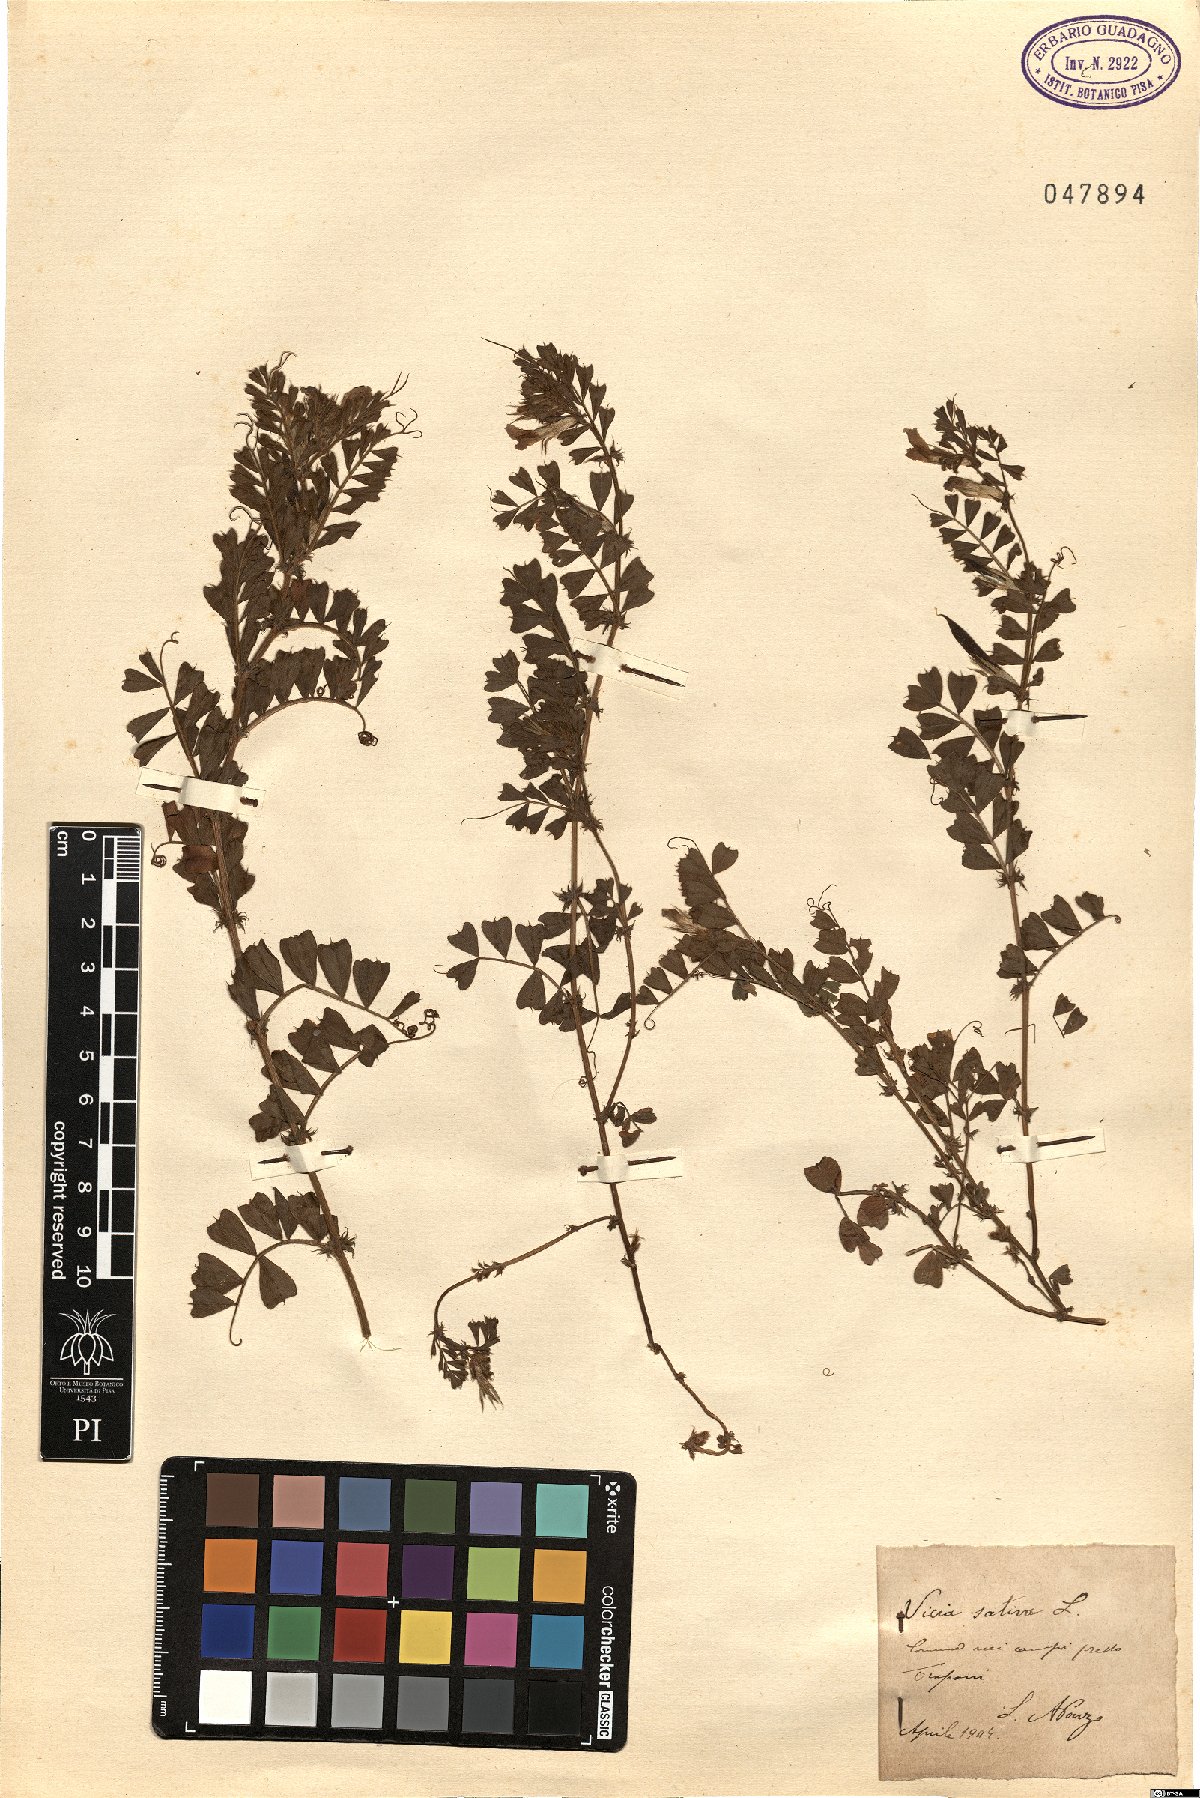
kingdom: Plantae
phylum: Tracheophyta
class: Magnoliopsida
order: Fabales
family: Fabaceae
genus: Vicia
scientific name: Vicia sativa
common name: Garden vetch
